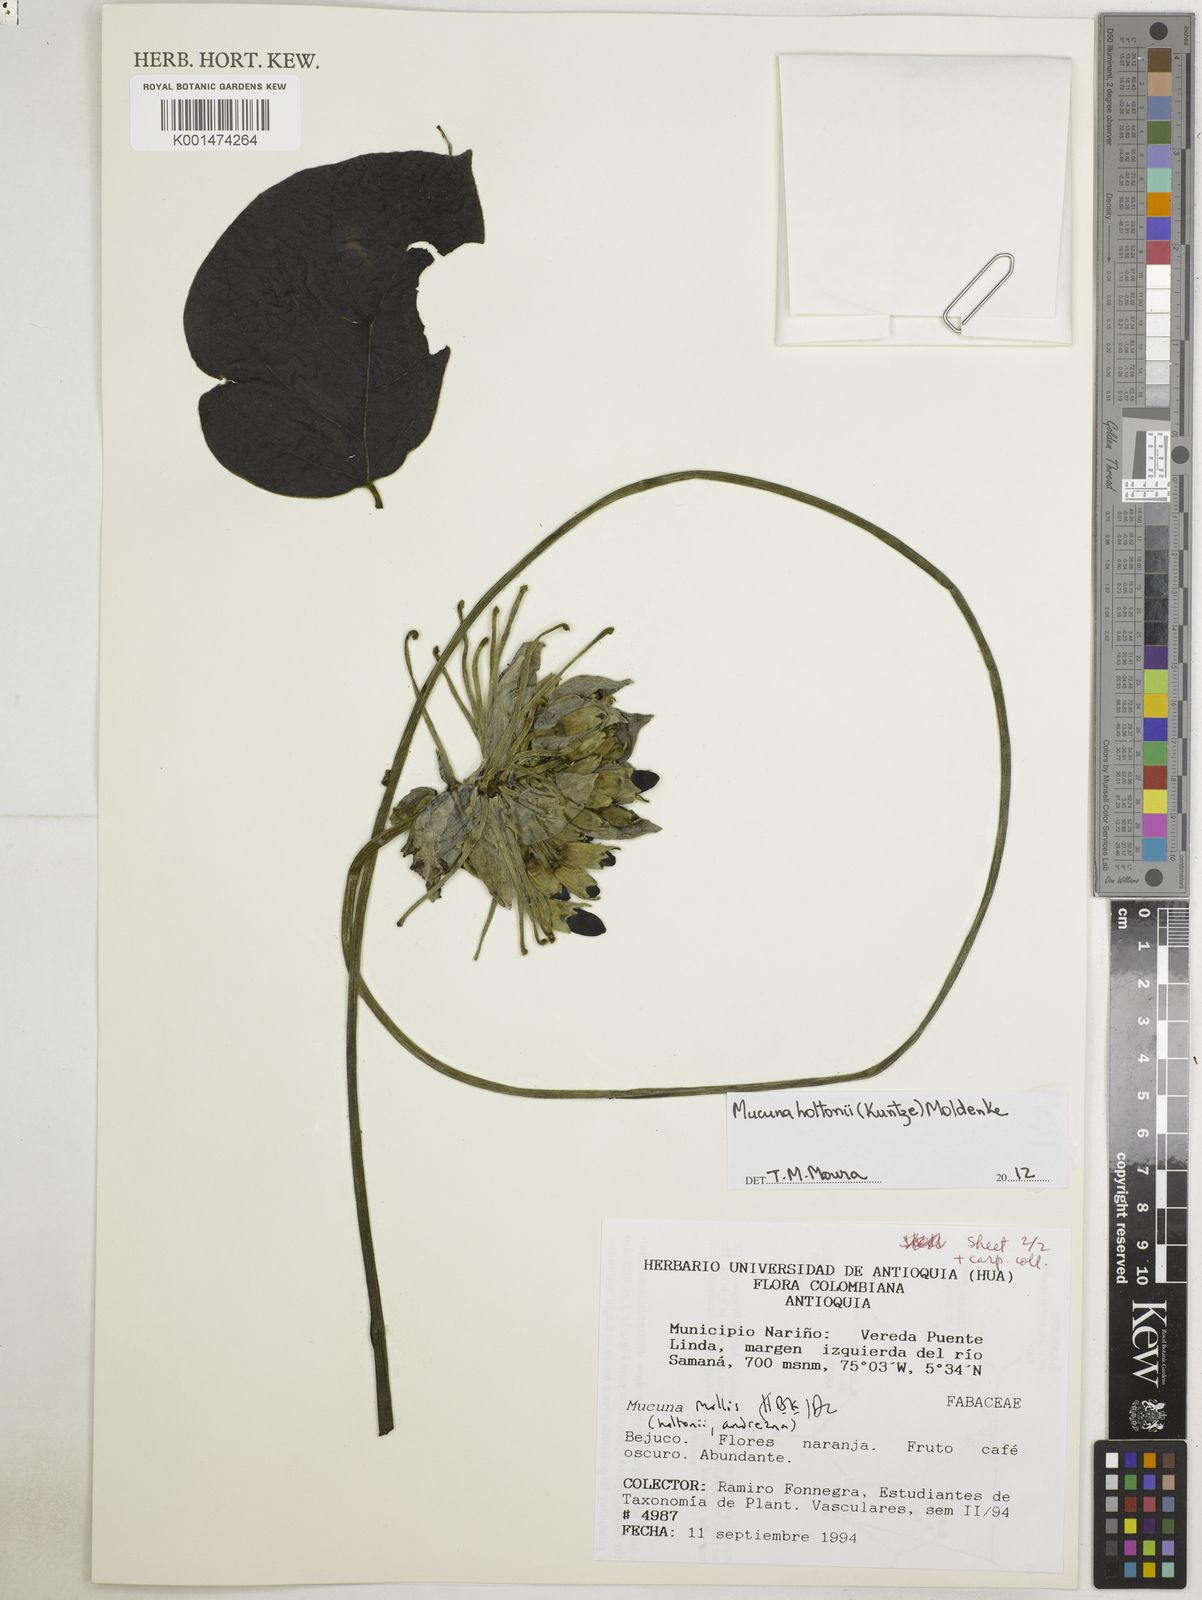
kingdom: Plantae
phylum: Tracheophyta
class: Magnoliopsida
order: Fabales
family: Fabaceae
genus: Mucuna
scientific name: Mucuna holtonii
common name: Hamburger bean
